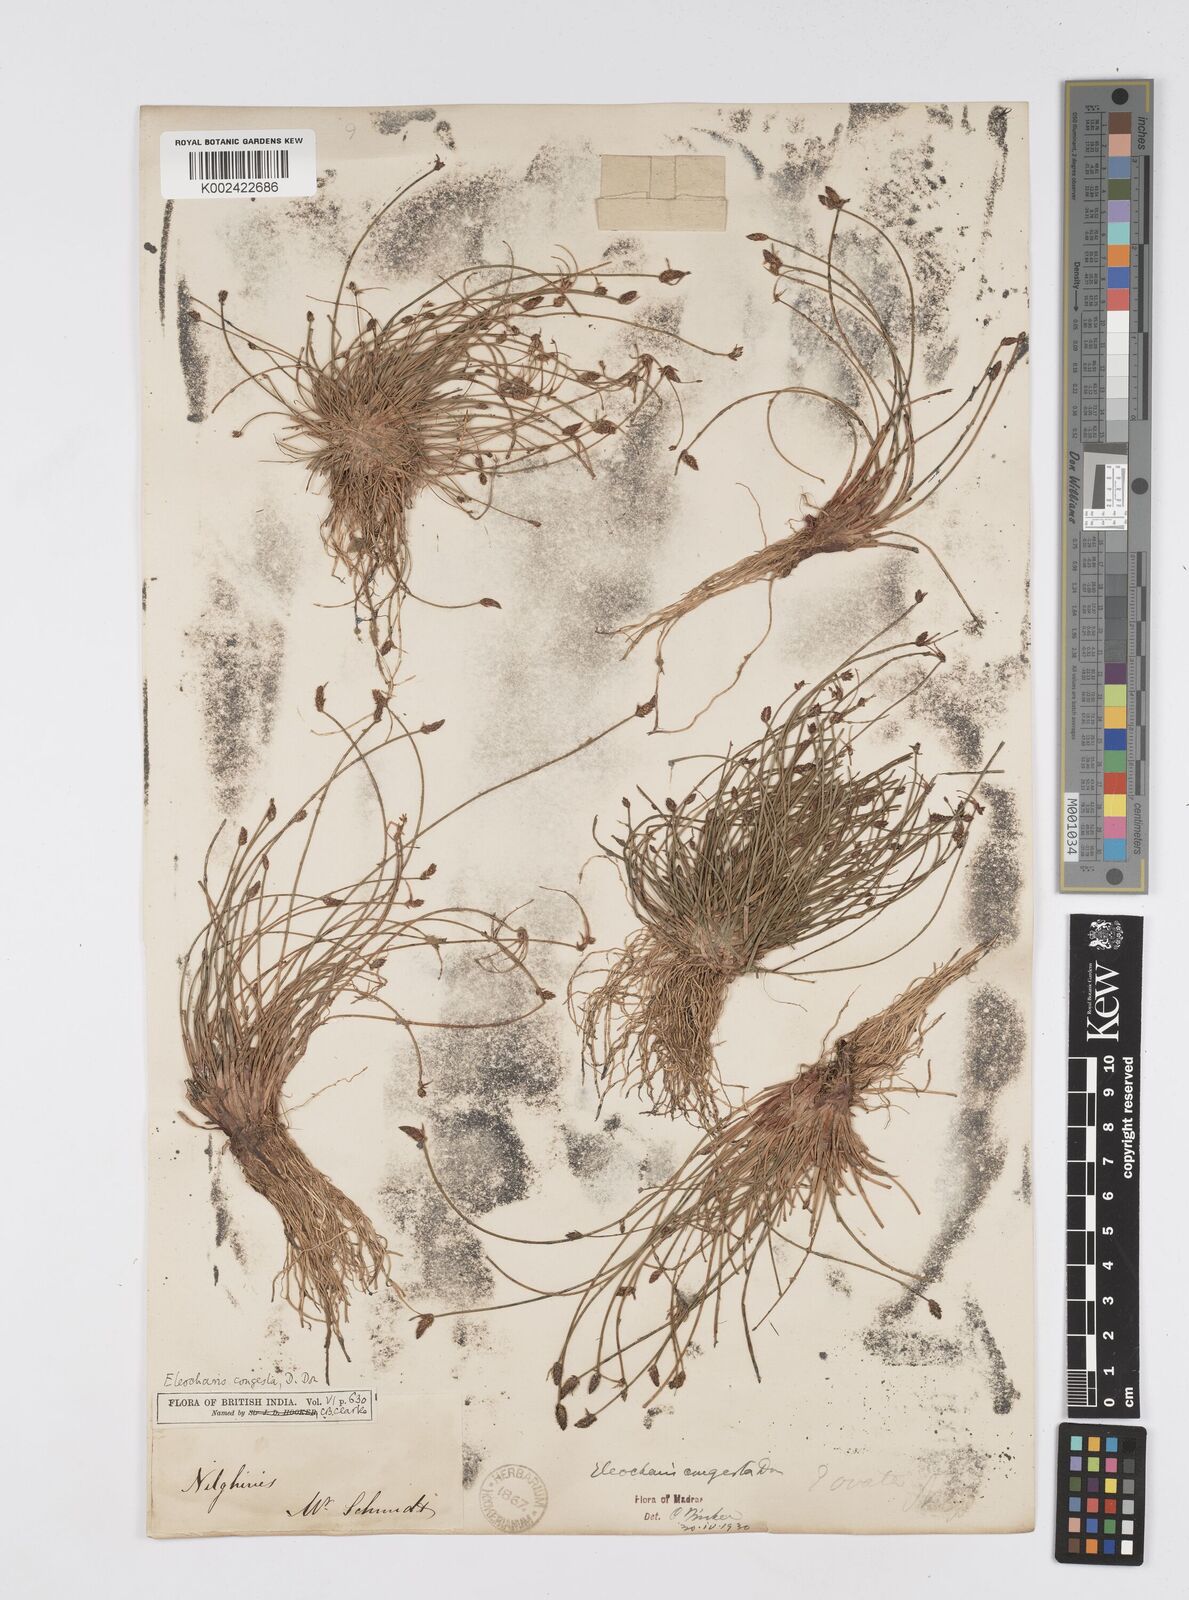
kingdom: Plantae
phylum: Tracheophyta
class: Liliopsida
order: Poales
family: Cyperaceae
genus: Eleocharis
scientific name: Eleocharis congesta
